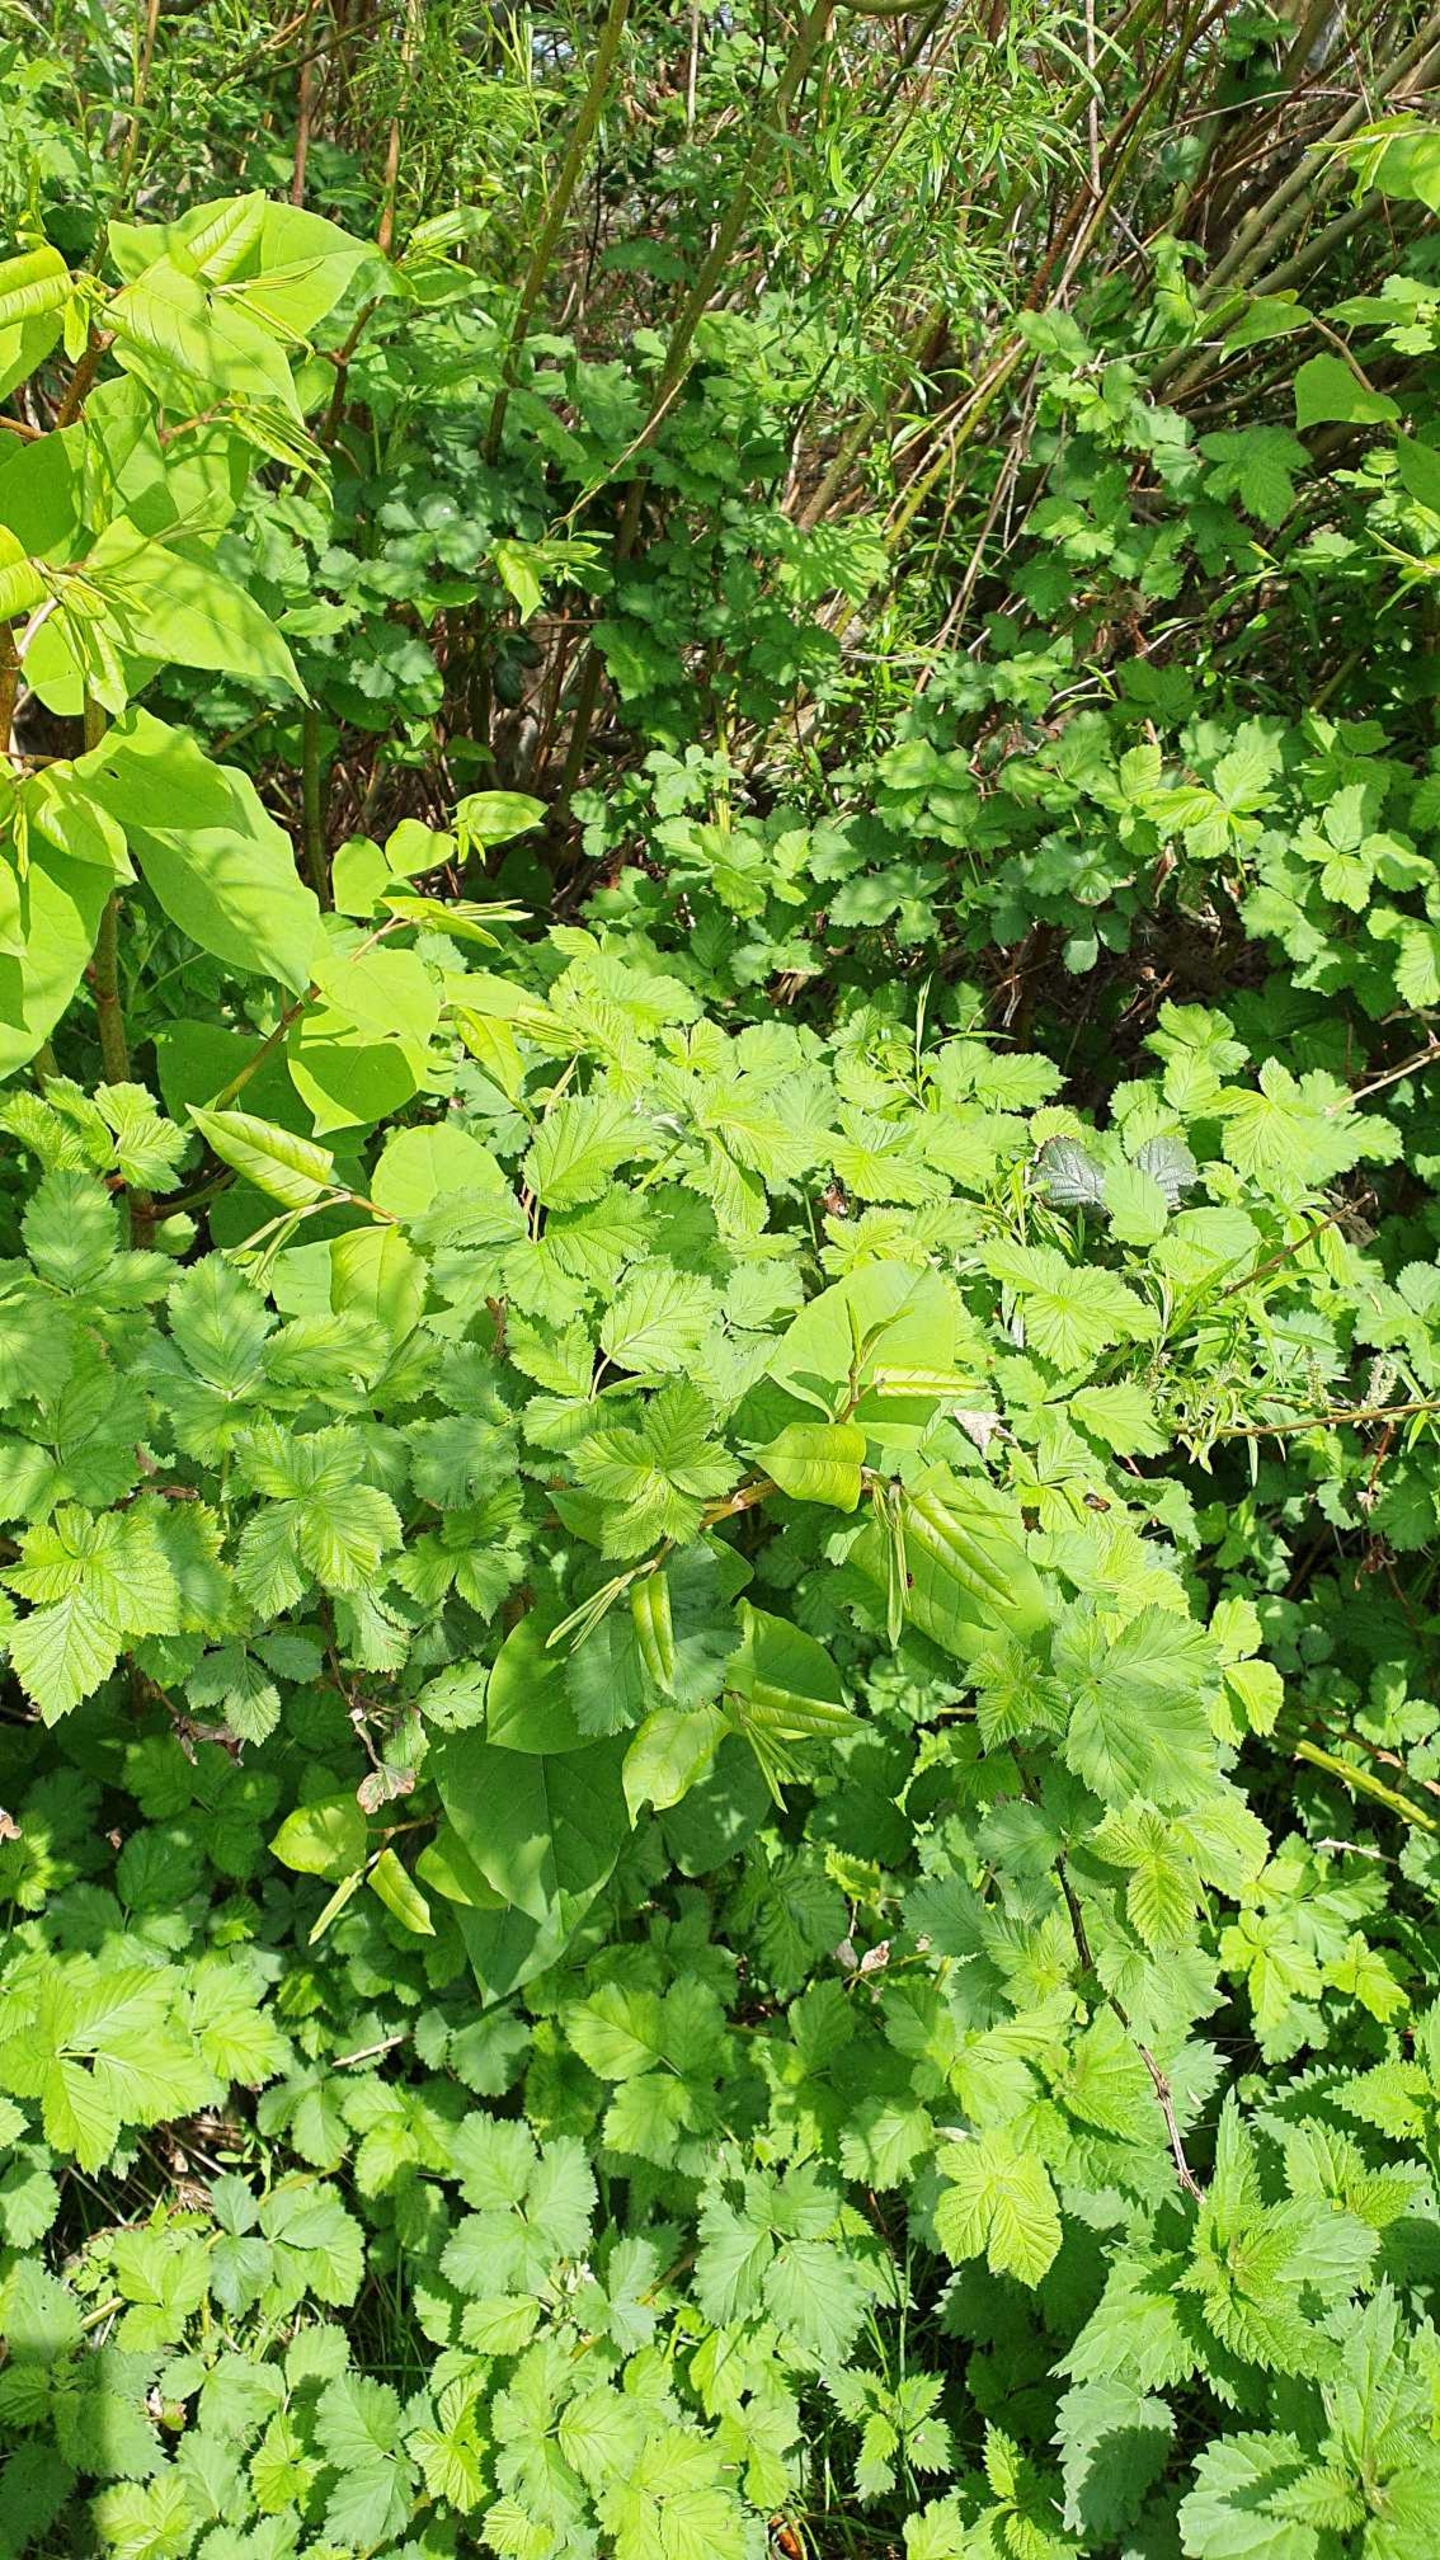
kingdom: Plantae
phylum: Tracheophyta
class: Magnoliopsida
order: Caryophyllales
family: Polygonaceae
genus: Reynoutria
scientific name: Reynoutria japonica
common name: Japan-pileurt
